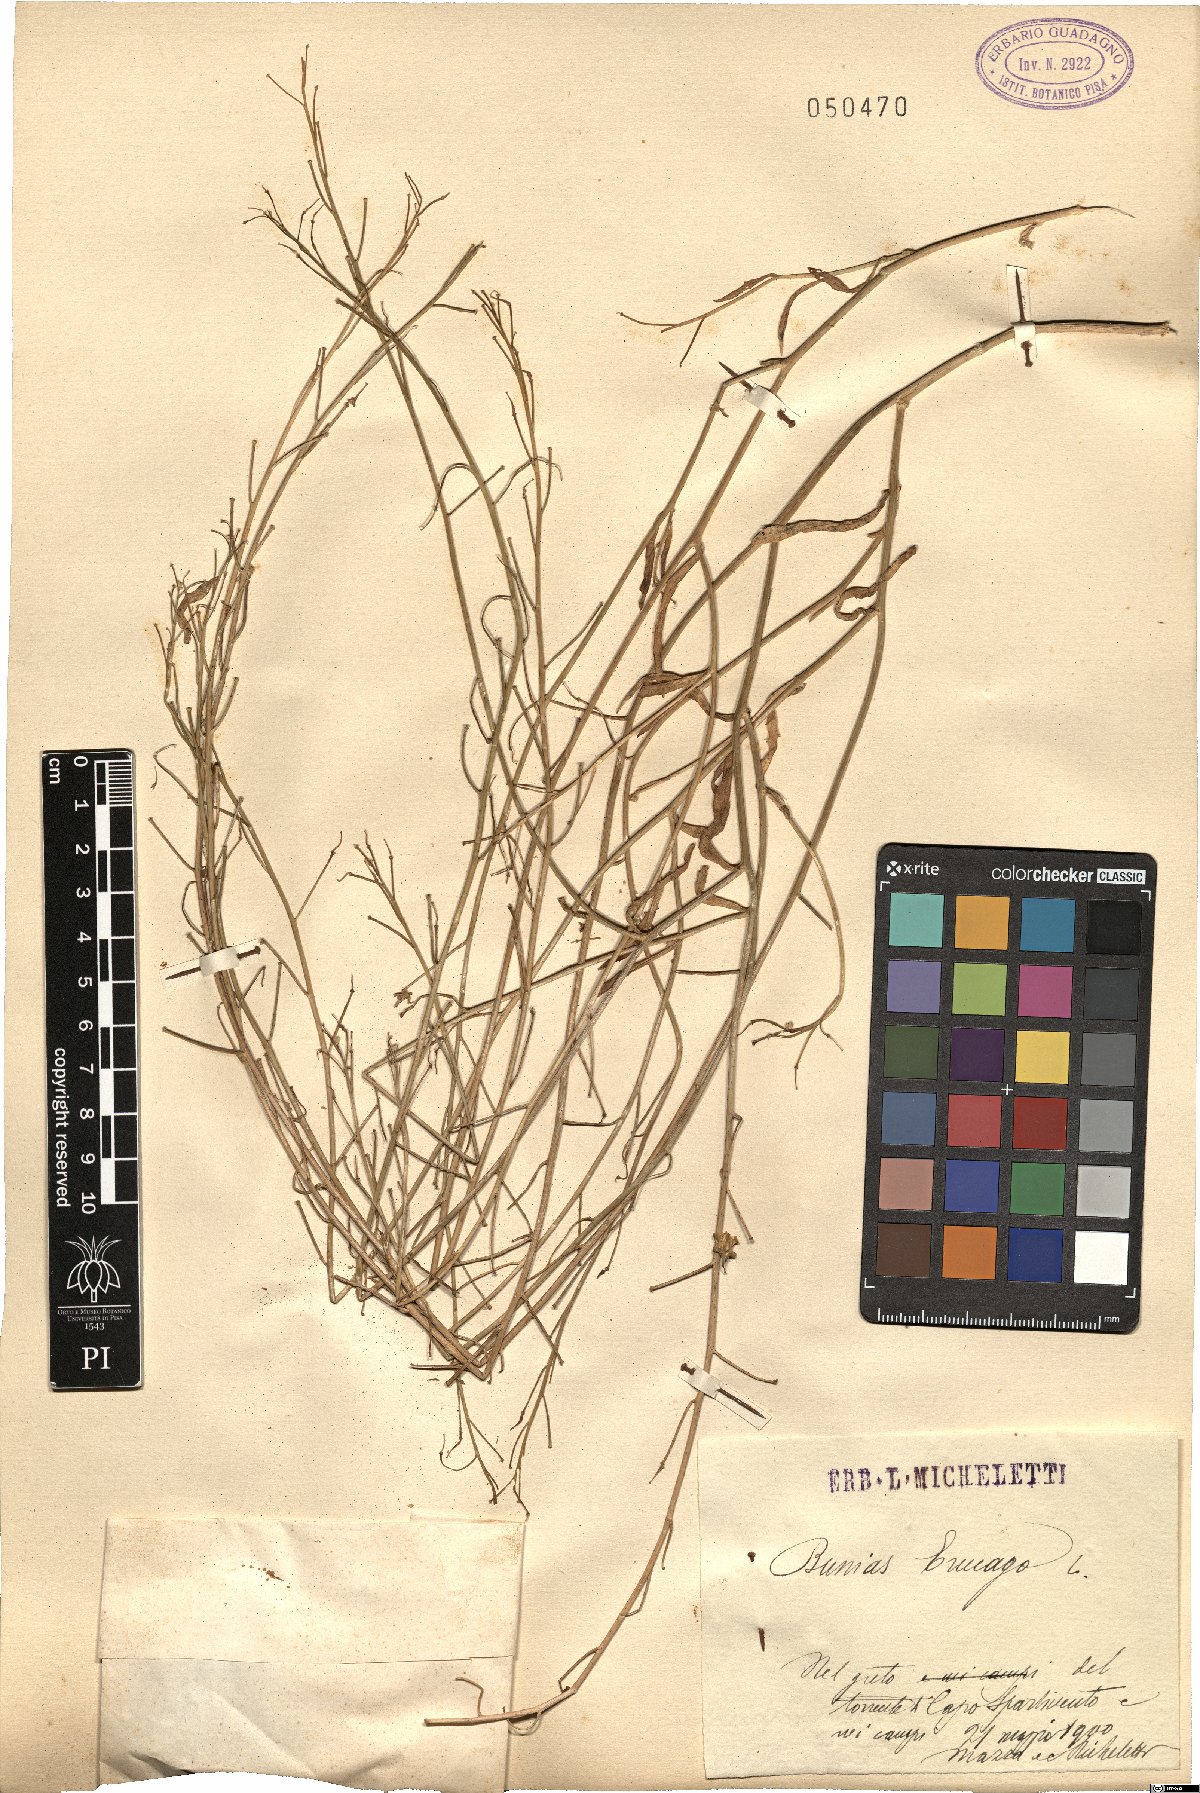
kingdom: Plantae
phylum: Tracheophyta
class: Magnoliopsida
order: Brassicales
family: Brassicaceae
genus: Bunias
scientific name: Bunias erucago
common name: Southern warty-cabbage
